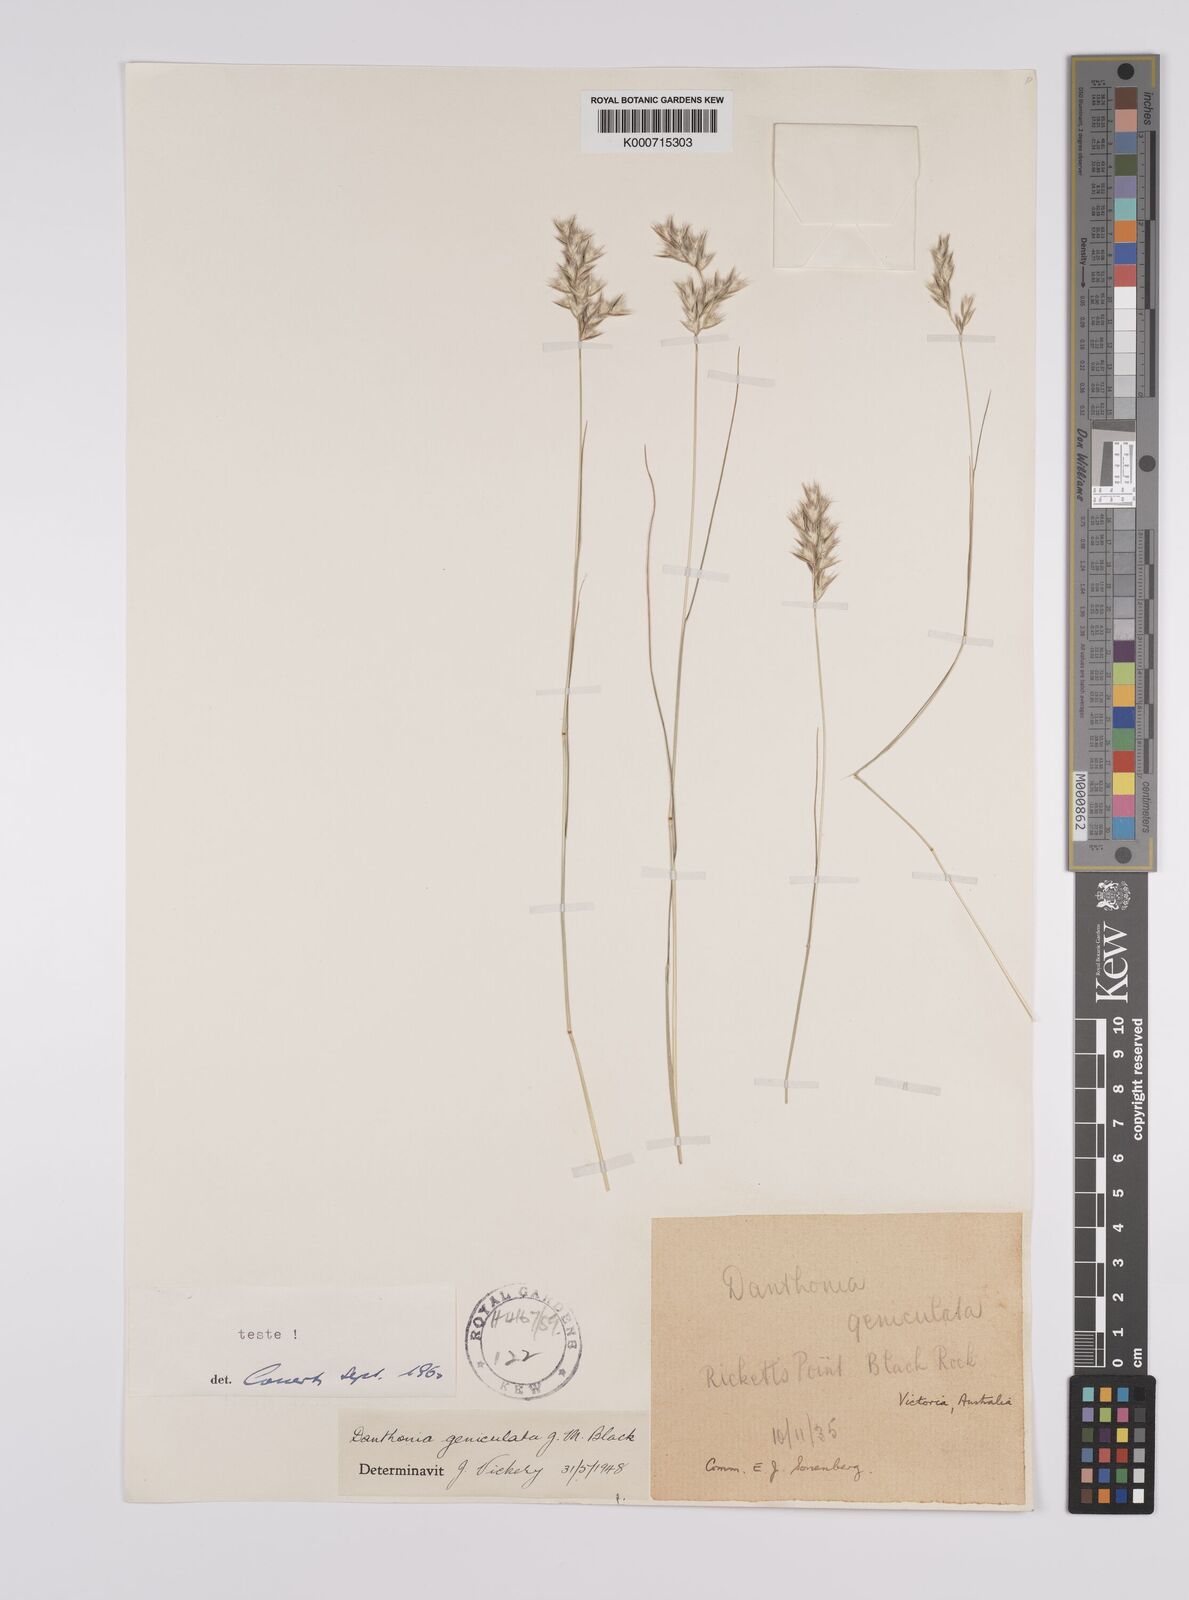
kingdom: Plantae
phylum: Tracheophyta
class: Liliopsida
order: Poales
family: Poaceae
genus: Rytidosperma
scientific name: Rytidosperma geniculatum
